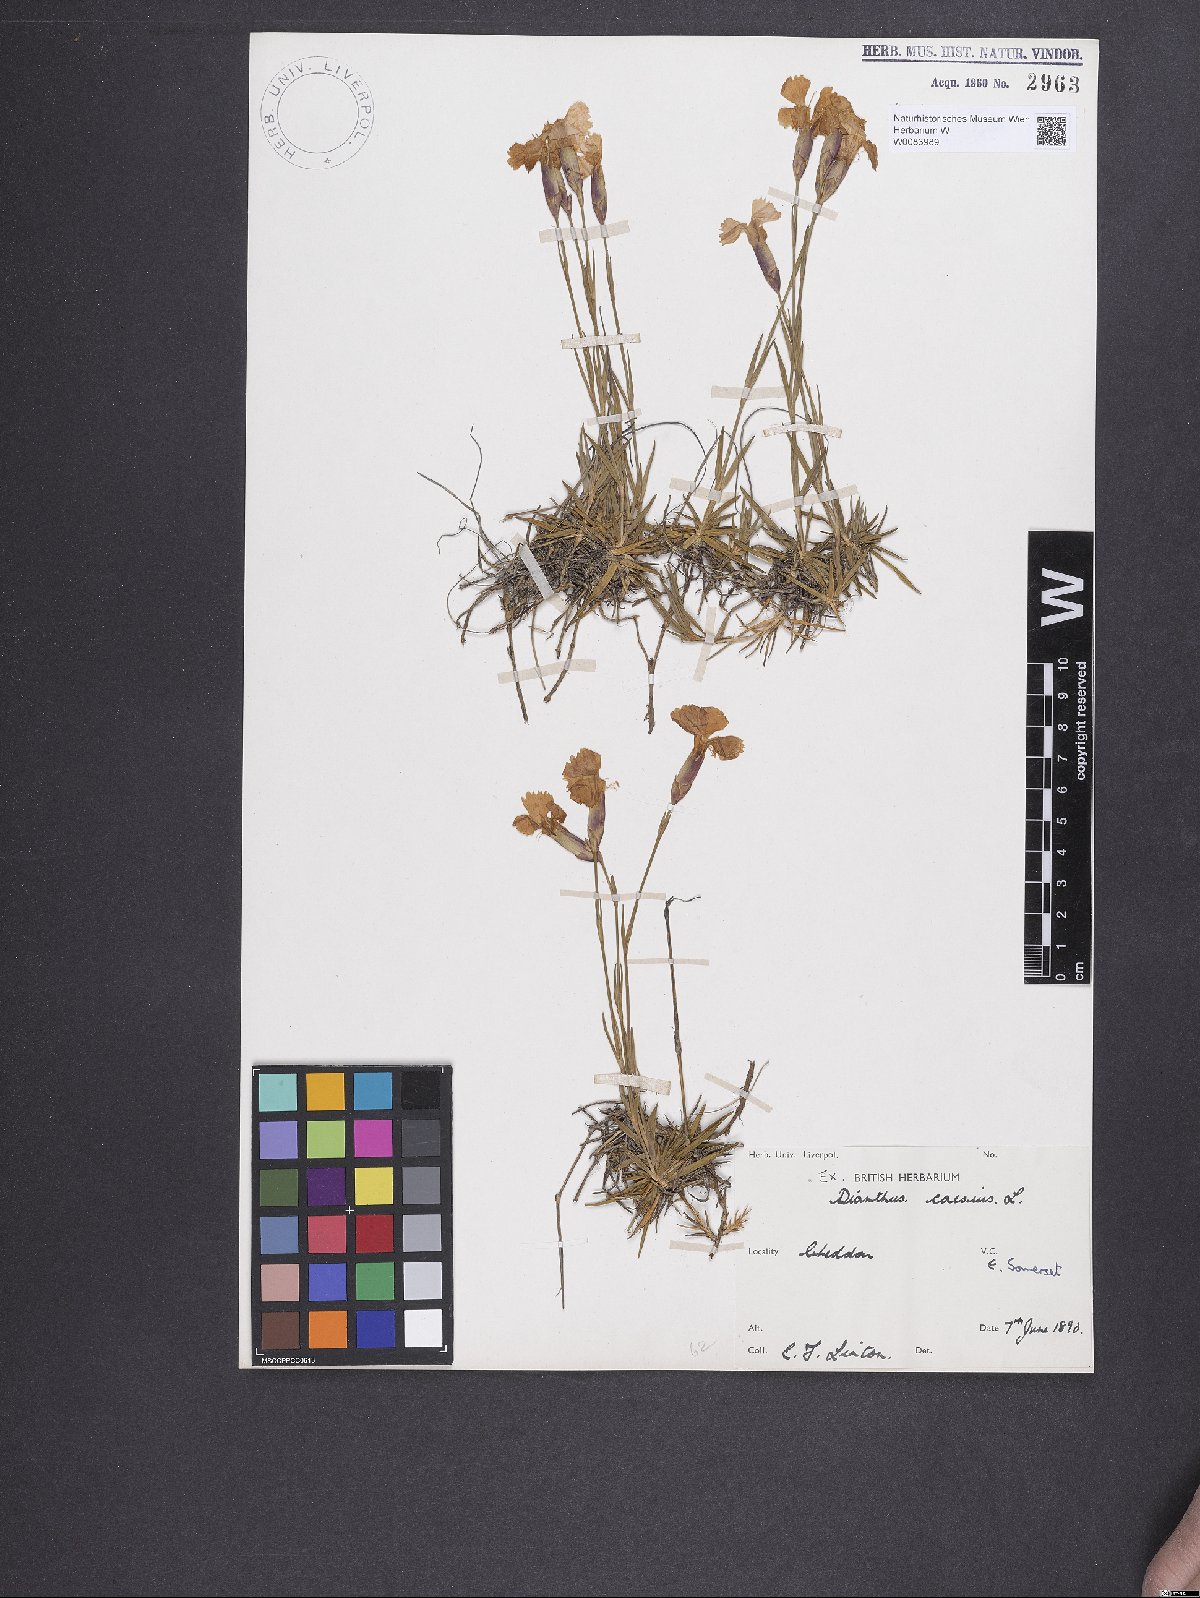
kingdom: Plantae
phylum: Tracheophyta
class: Magnoliopsida
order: Caryophyllales
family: Caryophyllaceae
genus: Dianthus
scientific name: Dianthus gratianopolitanus
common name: Cheddar pink
